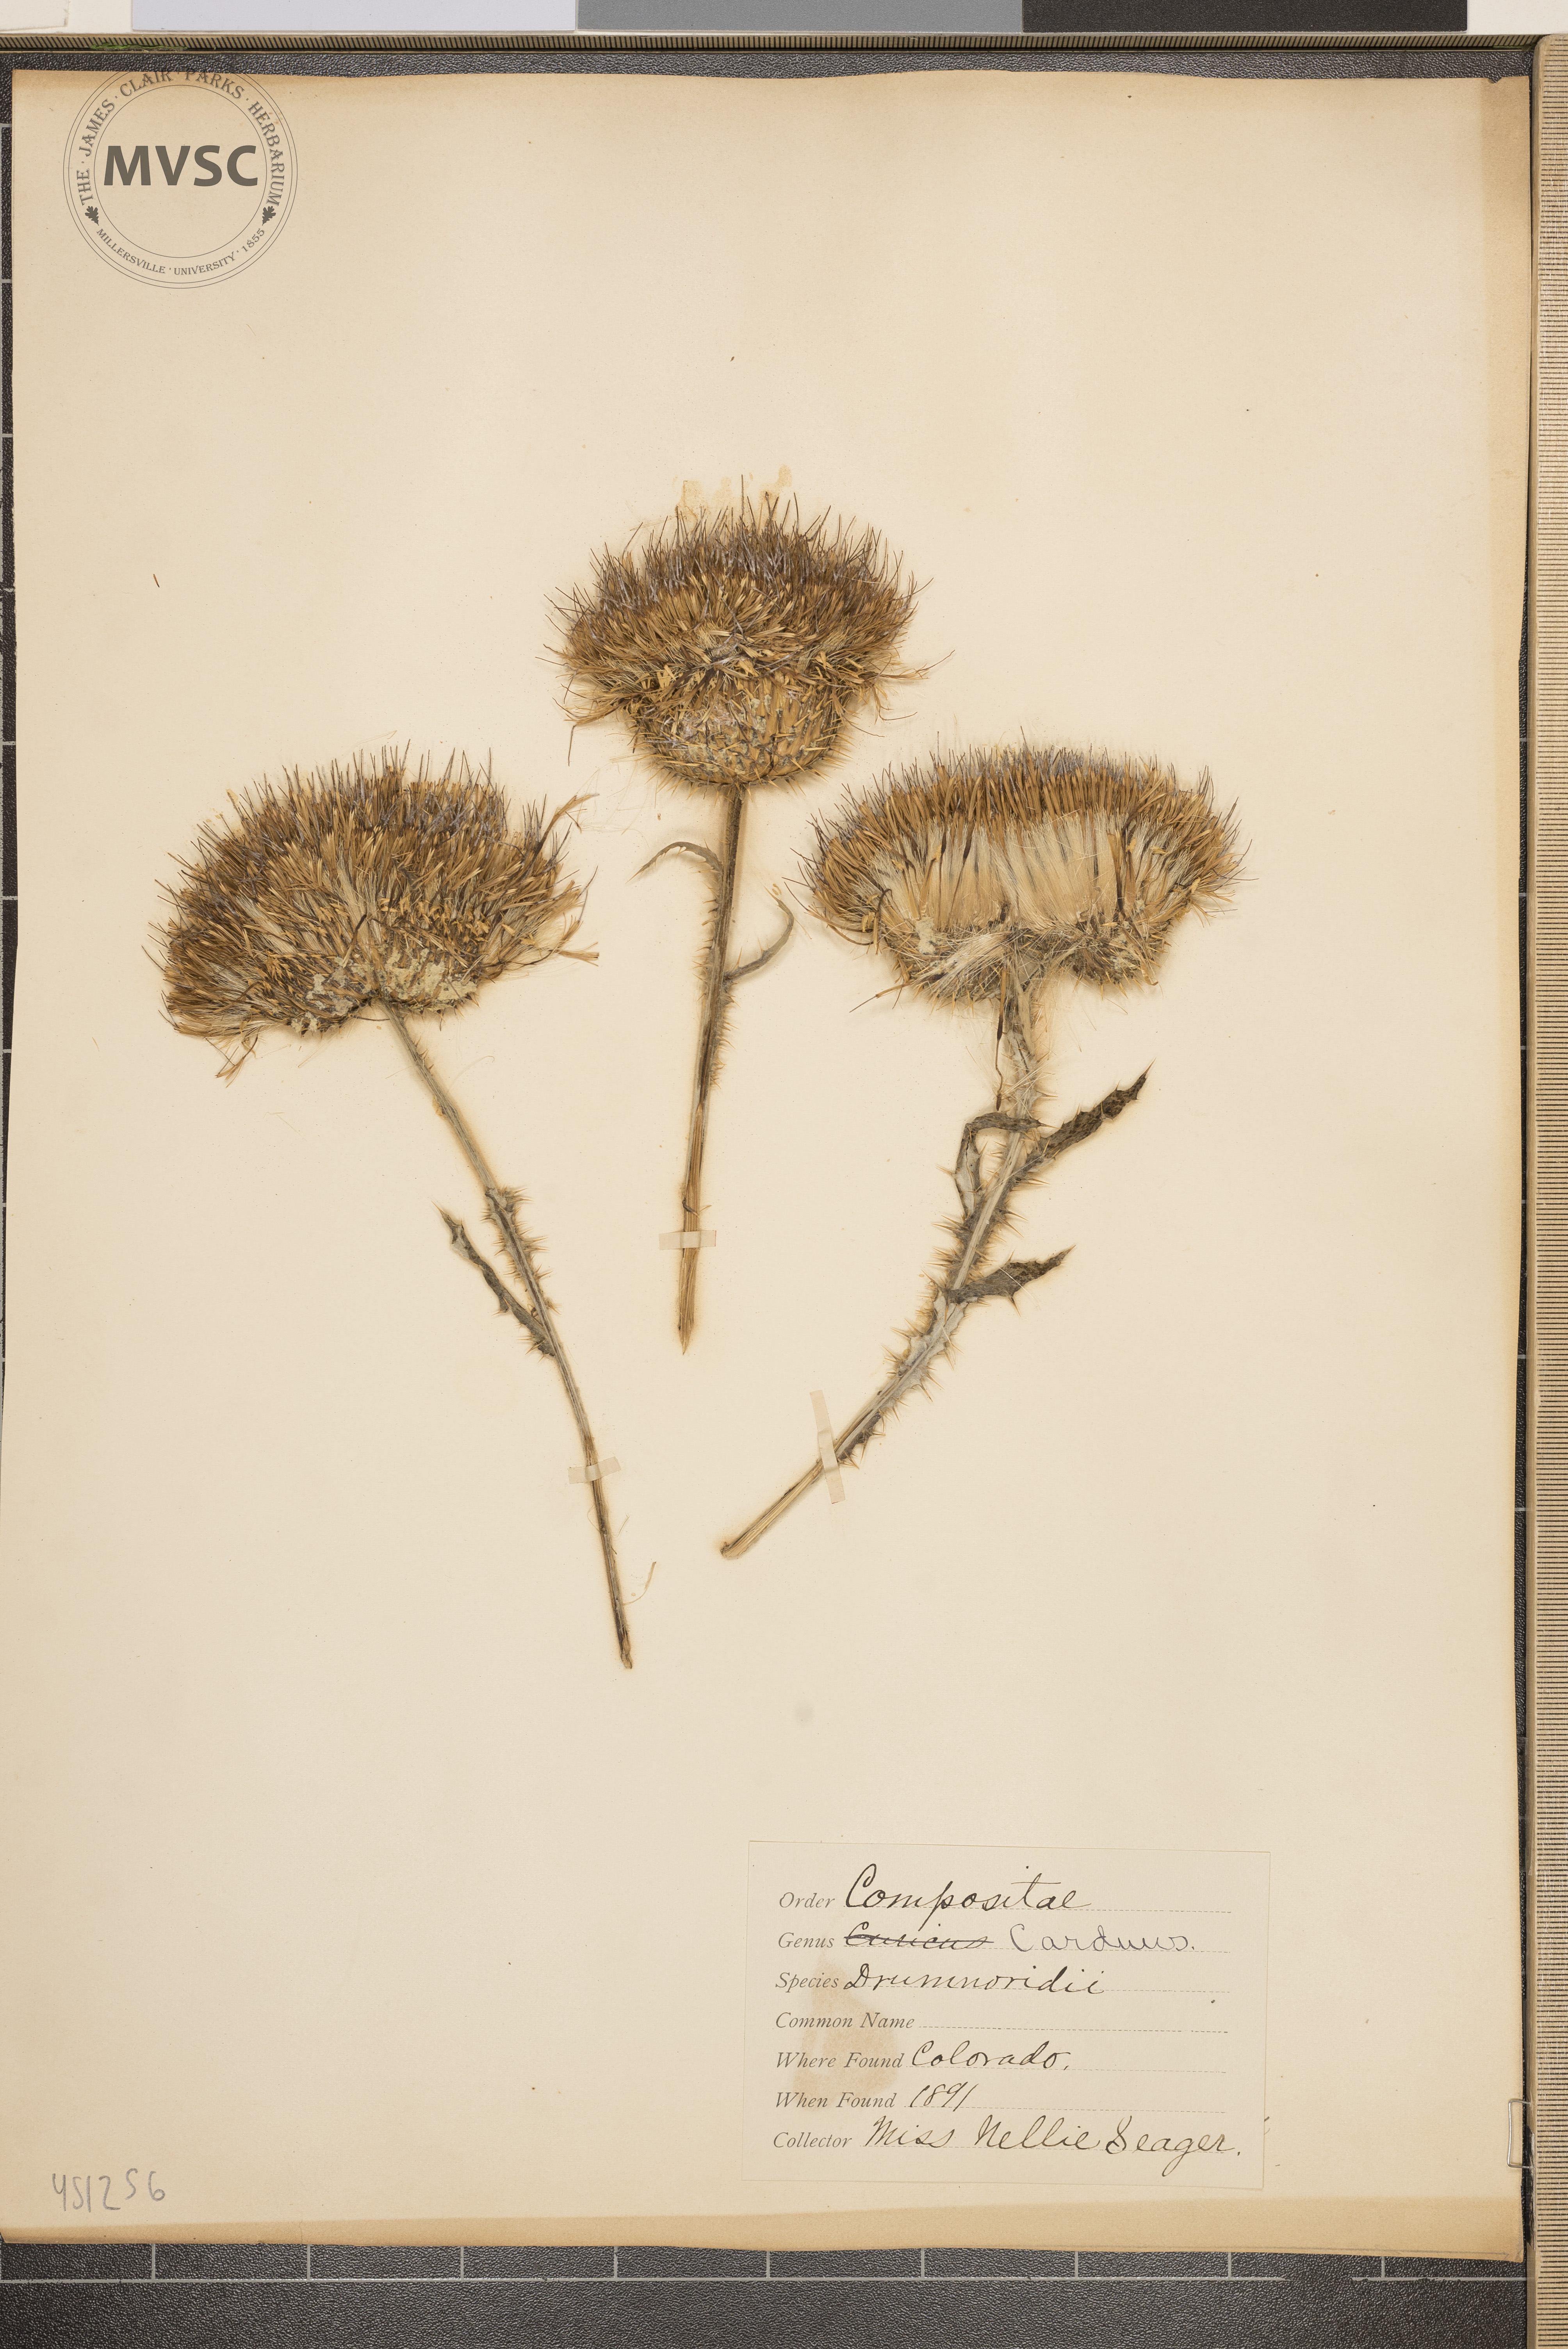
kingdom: Plantae
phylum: Tracheophyta
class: Magnoliopsida
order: Asterales
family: Asteraceae
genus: Cirsium
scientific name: Cirsium
